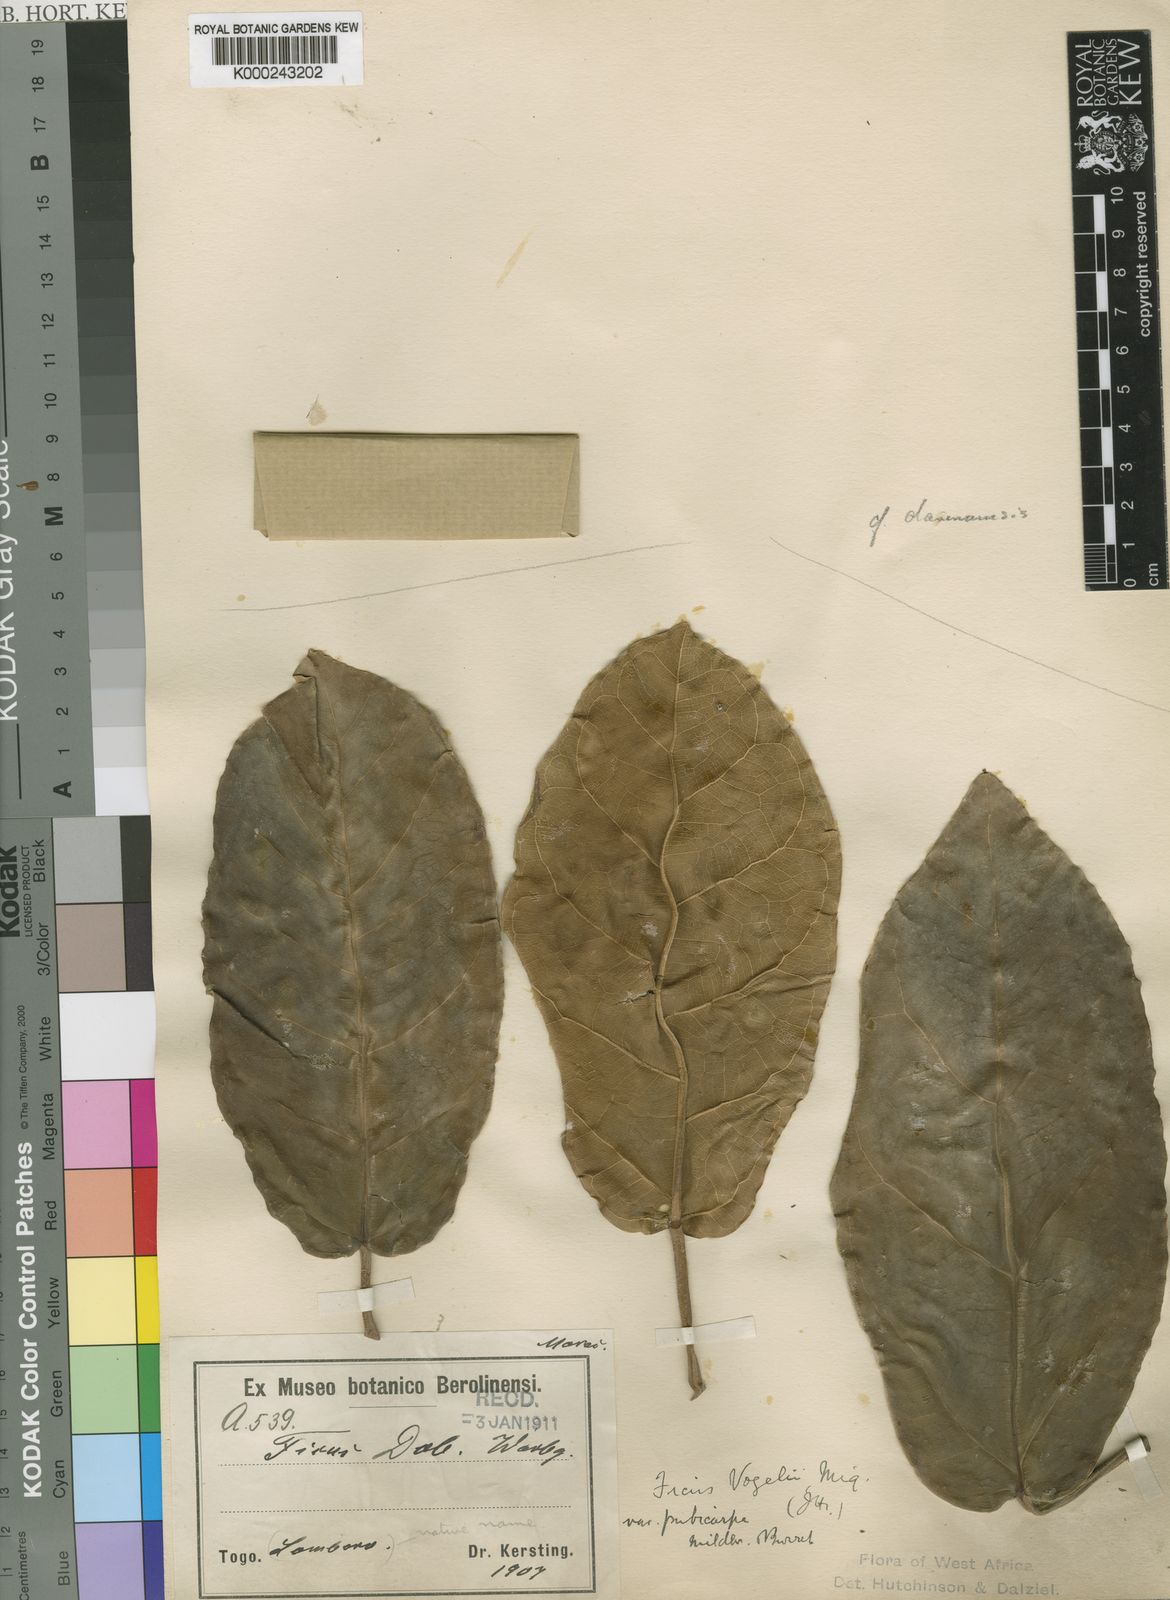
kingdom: Plantae
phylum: Tracheophyta
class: Magnoliopsida
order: Rosales
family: Moraceae
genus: Ficus
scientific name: Ficus lutea
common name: Giant-leaved fig
